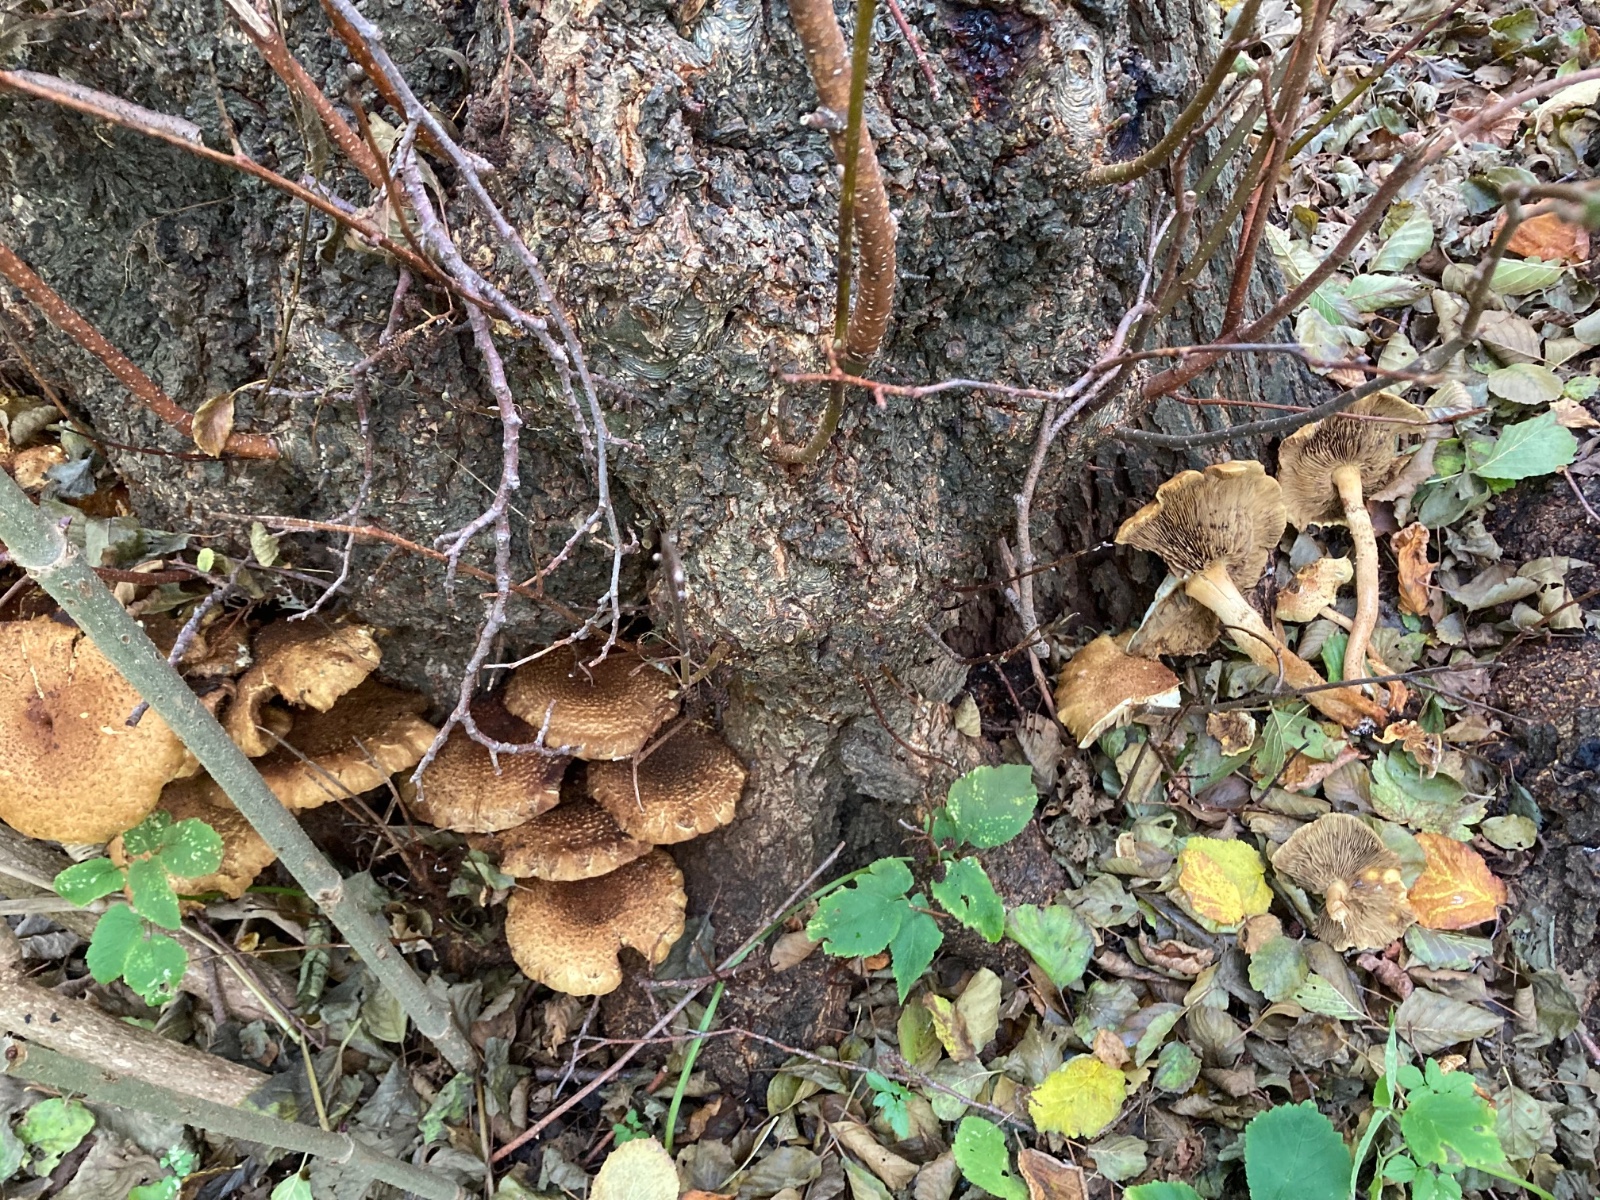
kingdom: Fungi
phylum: Basidiomycota
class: Agaricomycetes
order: Agaricales
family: Strophariaceae
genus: Pholiota
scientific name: Pholiota squarrosa
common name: krumskællet skælhat
